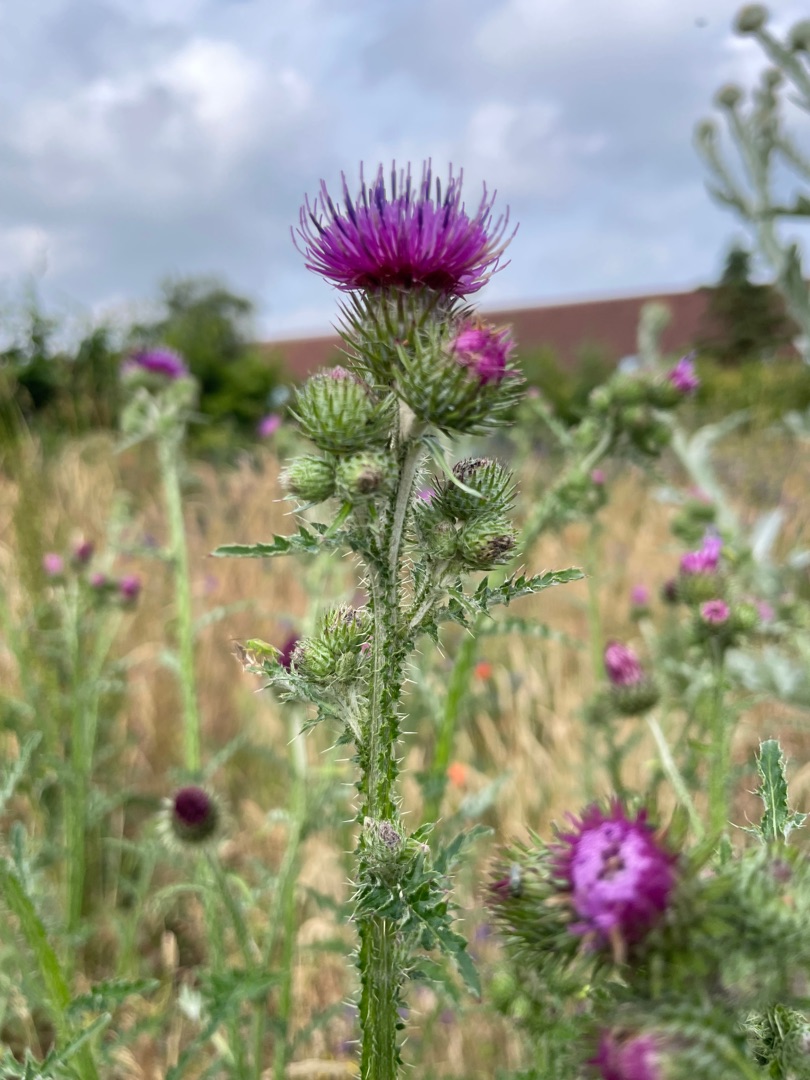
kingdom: Plantae
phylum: Tracheophyta
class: Magnoliopsida
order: Asterales
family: Asteraceae
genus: Carduus
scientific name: Carduus crispus
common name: Kruset tidsel
